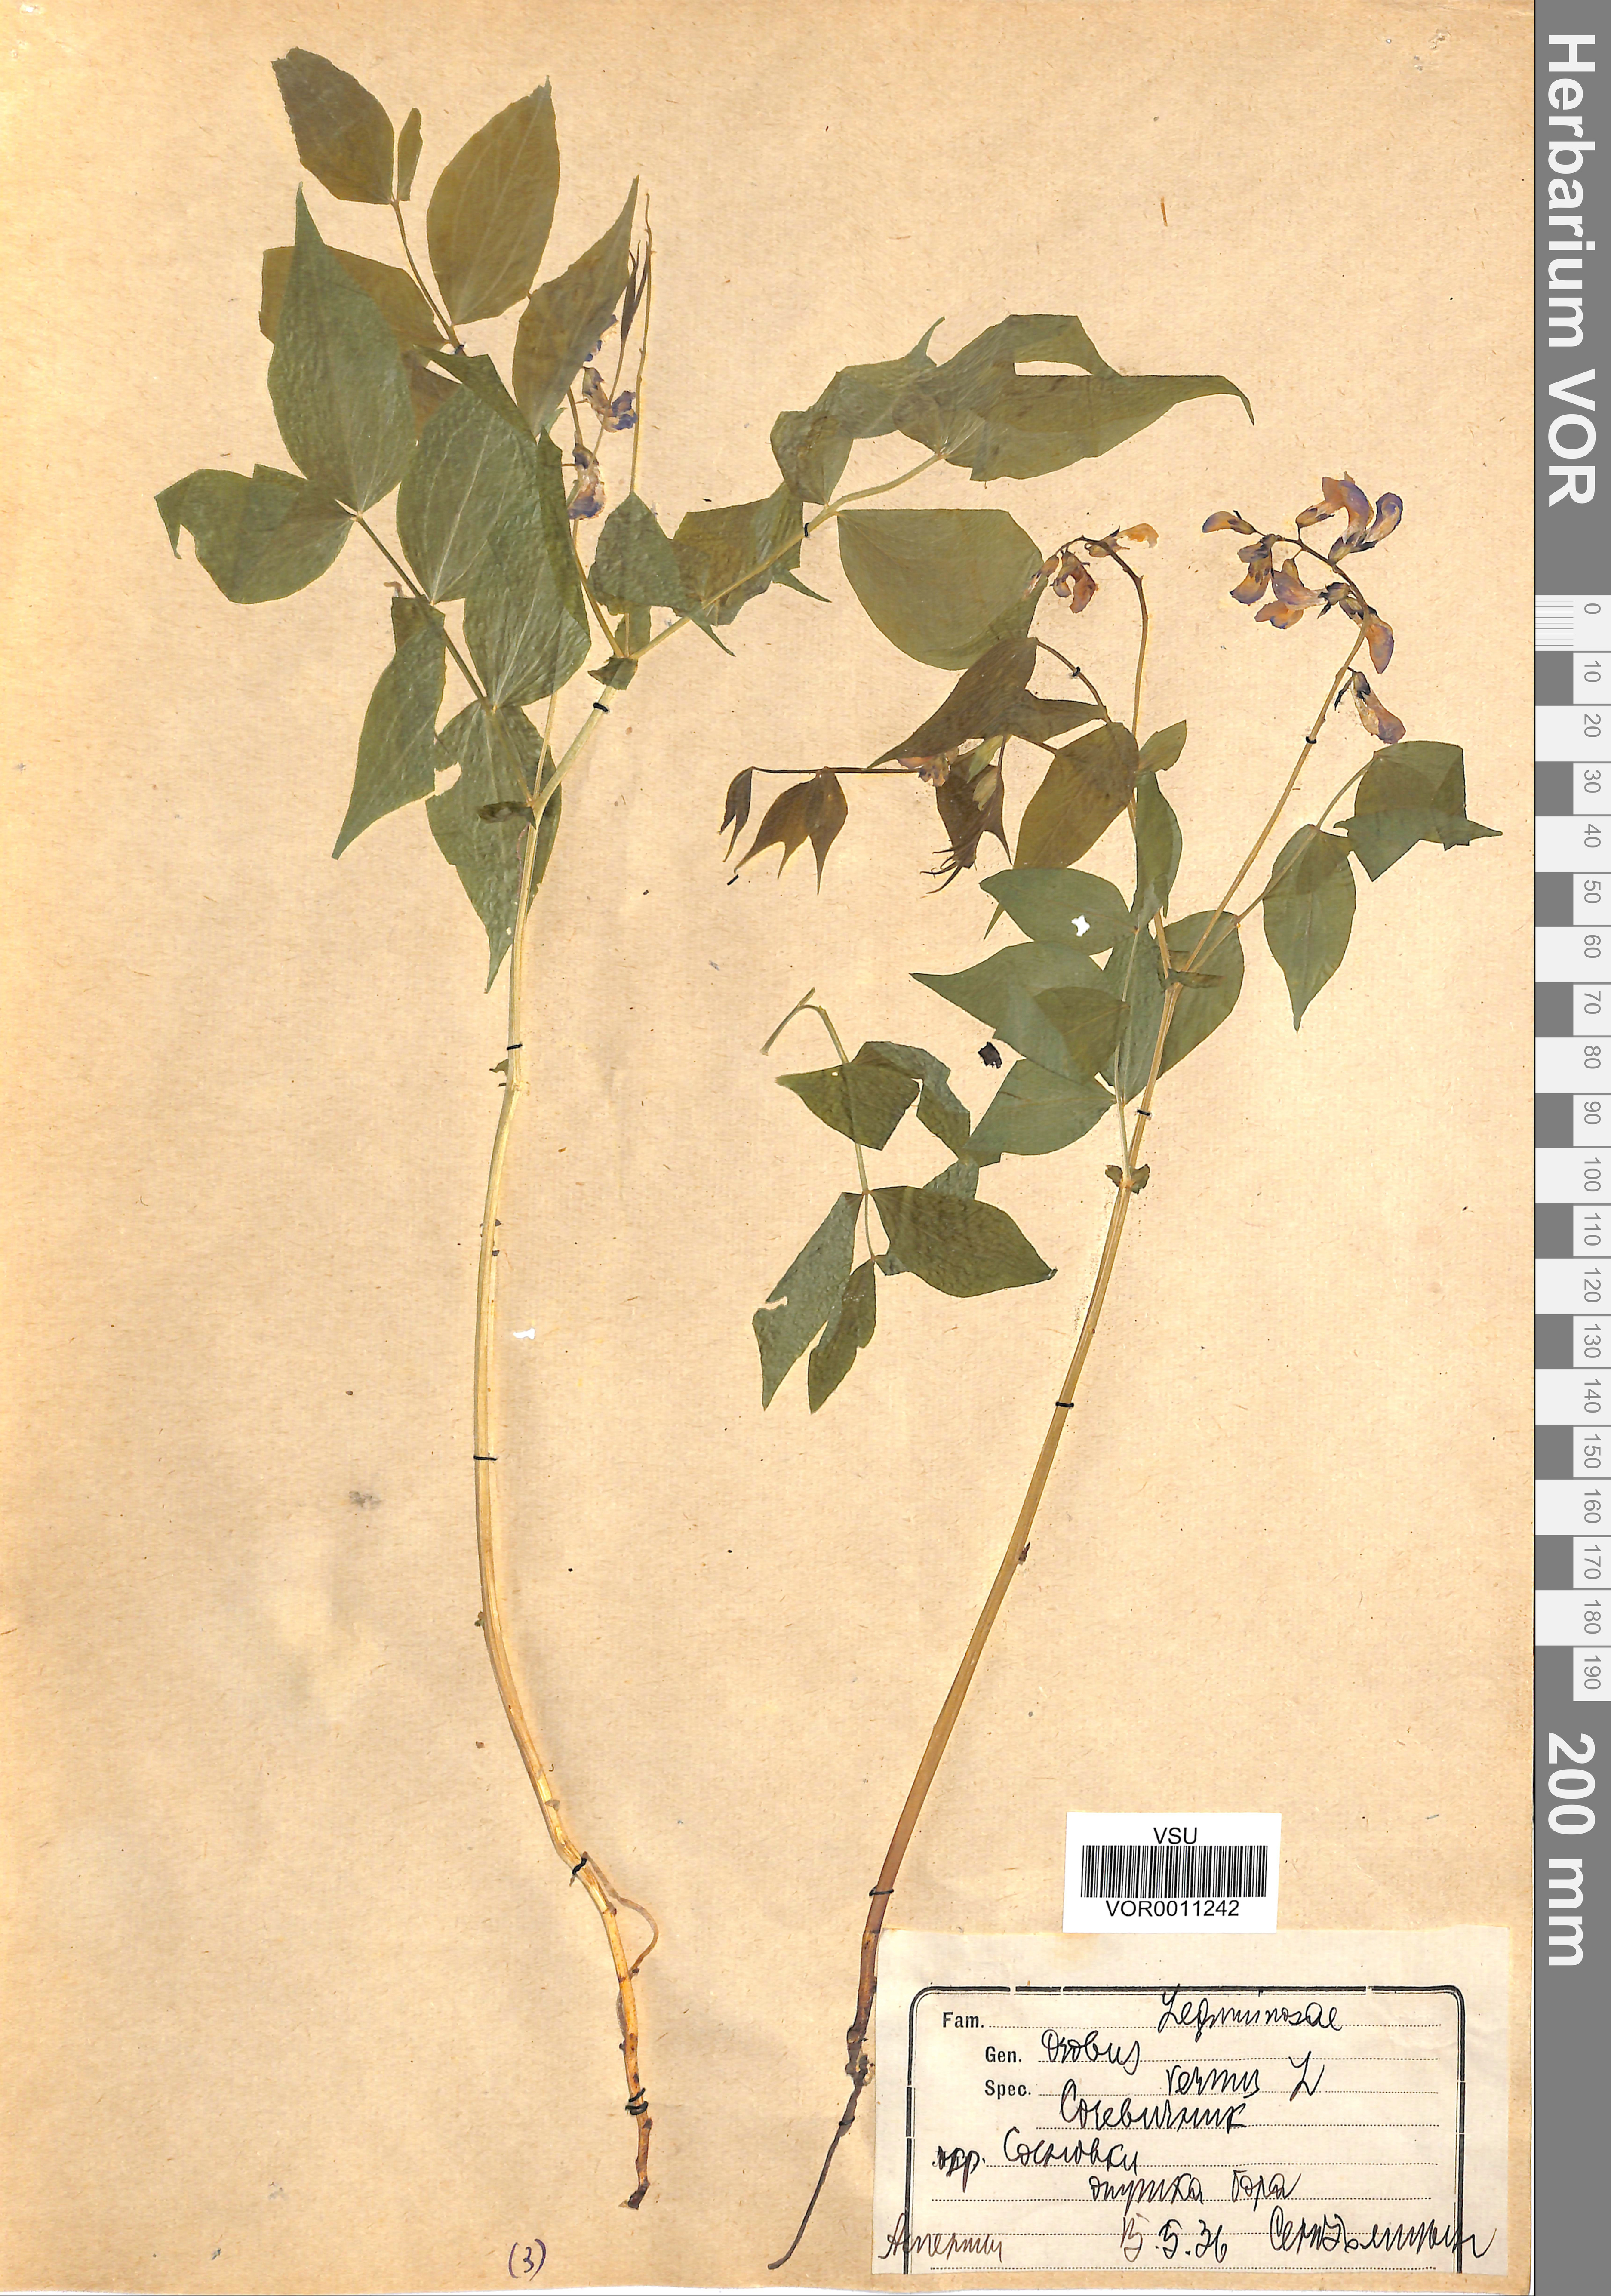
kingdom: Plantae
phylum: Tracheophyta
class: Magnoliopsida
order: Fabales
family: Fabaceae
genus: Lathyrus
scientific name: Lathyrus vernus
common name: Spring pea
